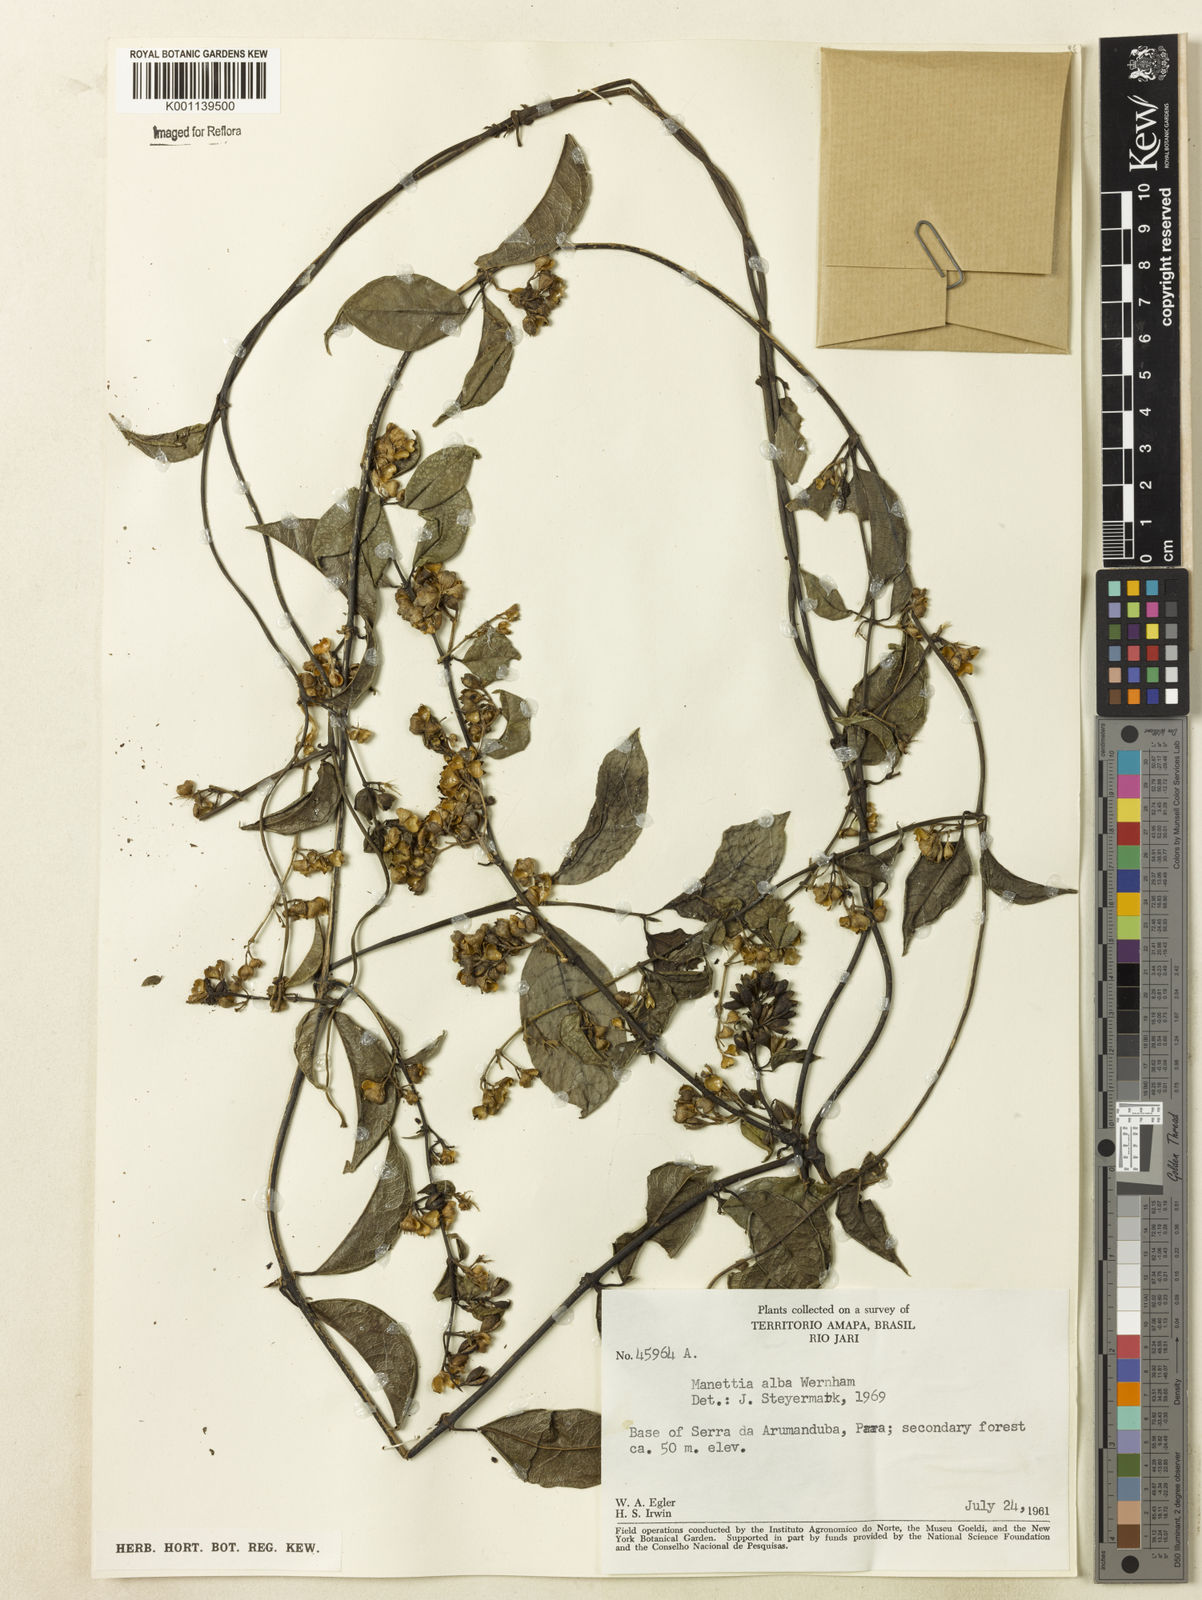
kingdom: Plantae
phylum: Tracheophyta
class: Magnoliopsida
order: Gentianales
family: Rubiaceae
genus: Manettia
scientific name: Manettia
